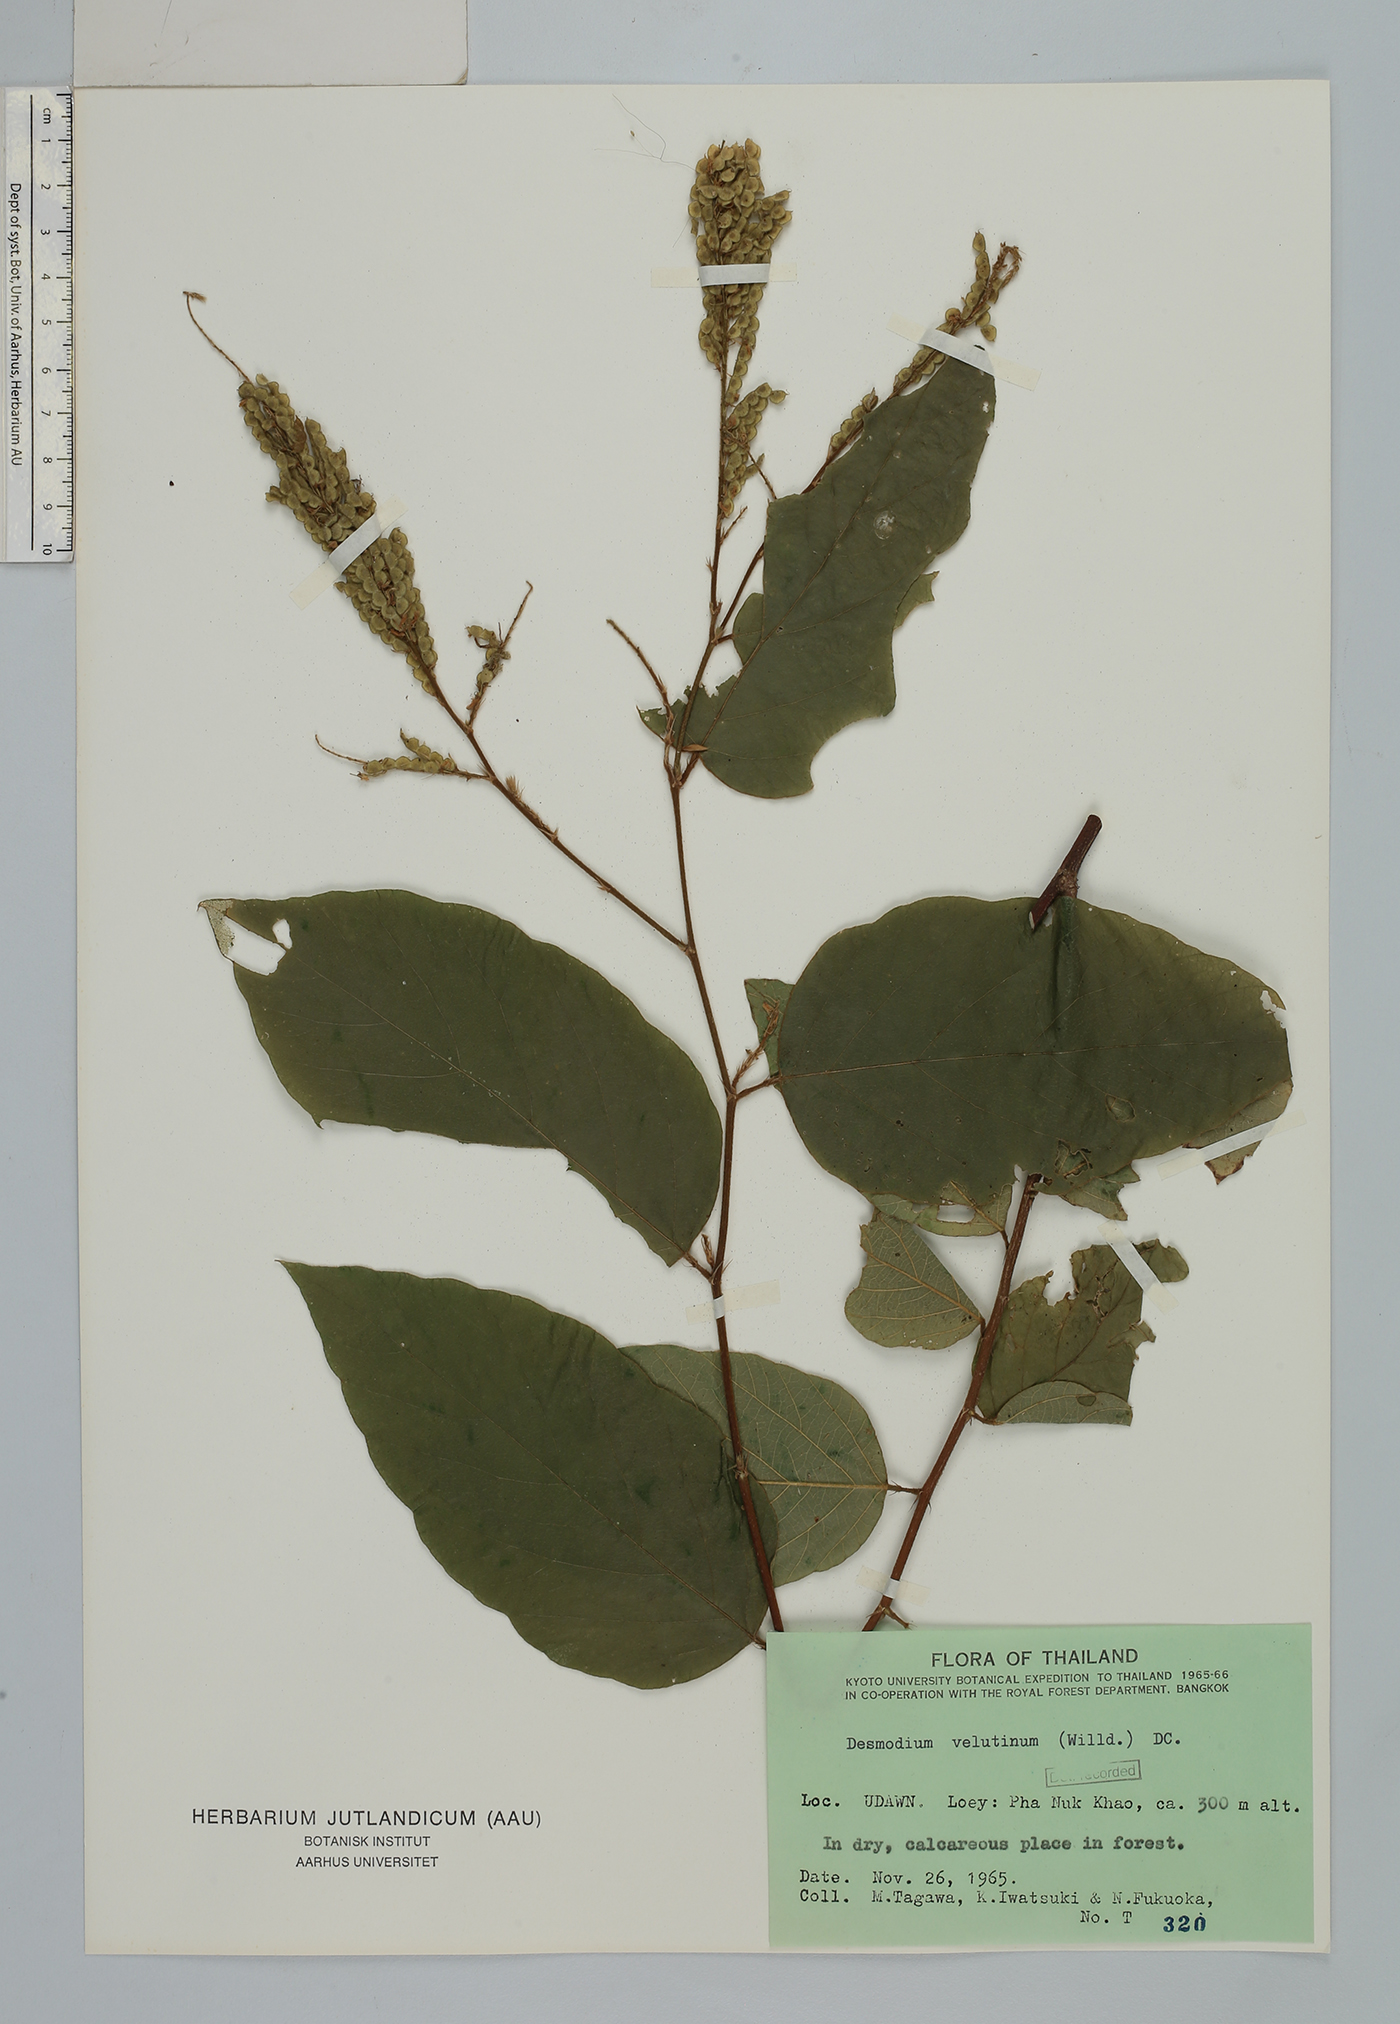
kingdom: Plantae
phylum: Tracheophyta
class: Magnoliopsida
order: Fabales
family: Fabaceae
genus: Polhillides
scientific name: Polhillides velutina
